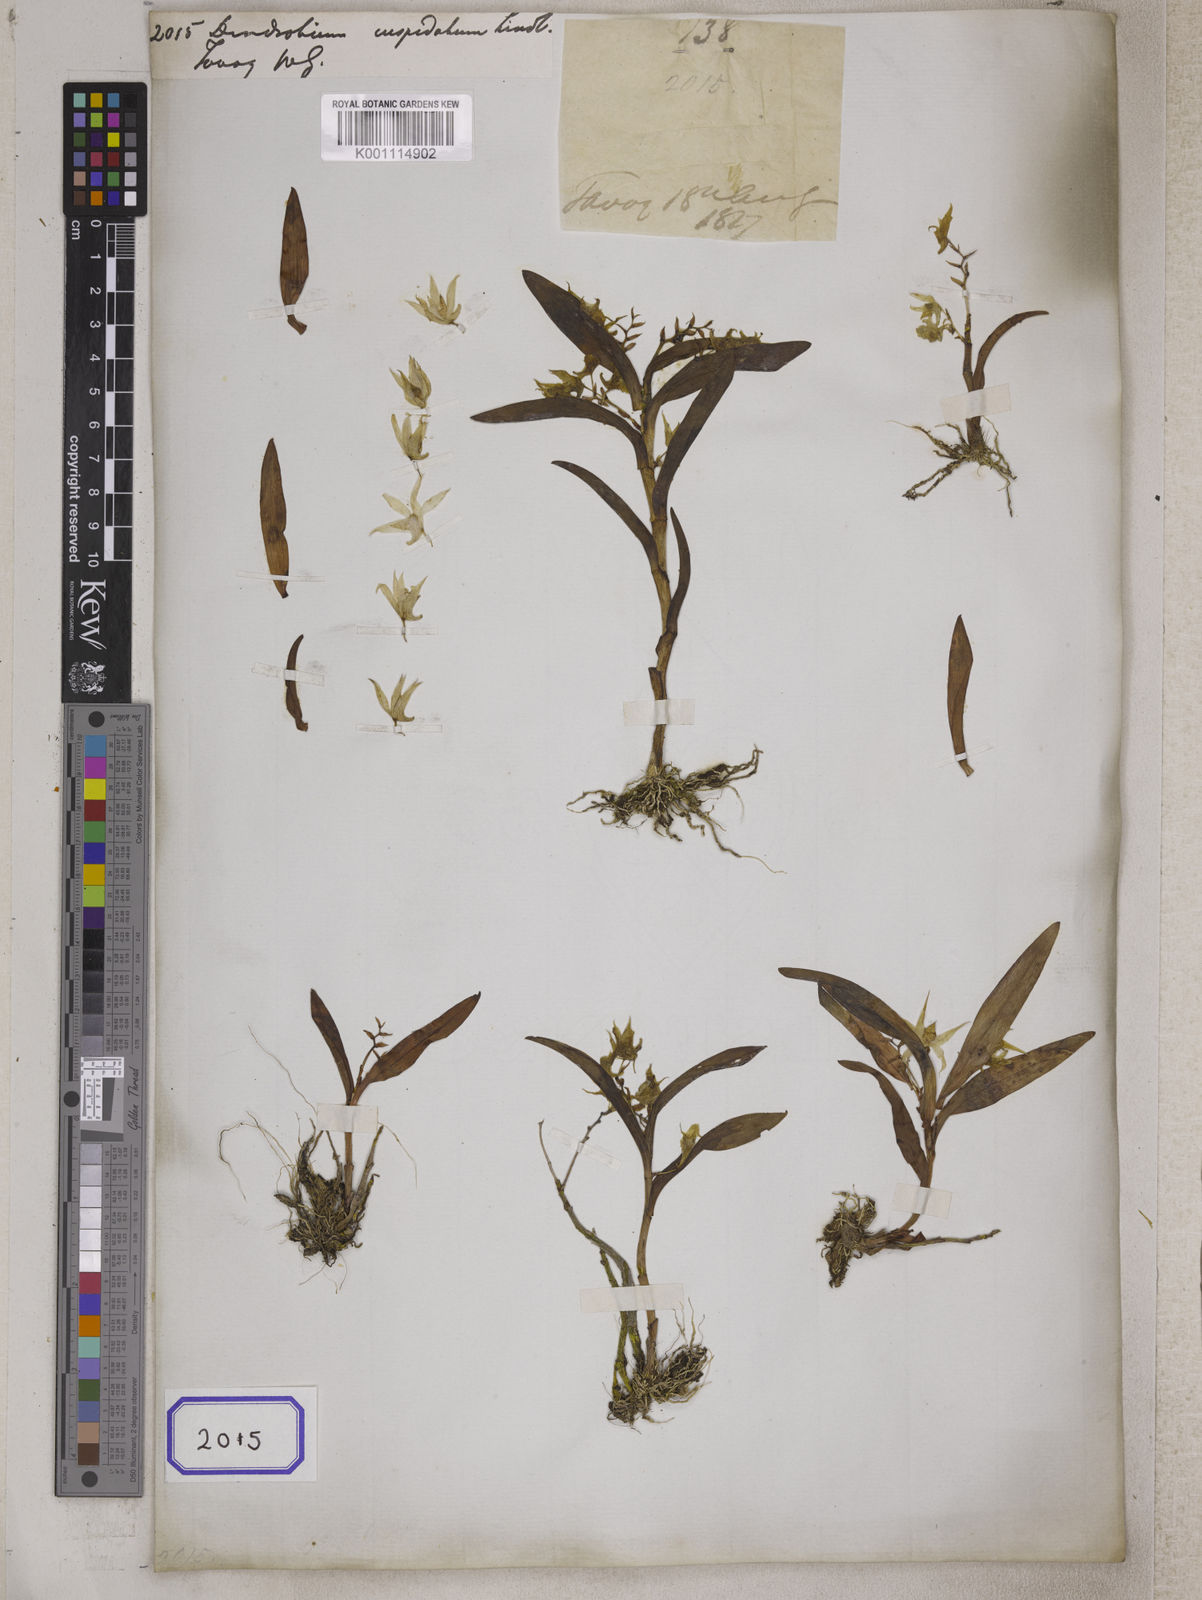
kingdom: Plantae
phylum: Tracheophyta
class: Liliopsida
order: Asparagales
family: Orchidaceae
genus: Dendrobium
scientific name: Dendrobium cuspidatum
